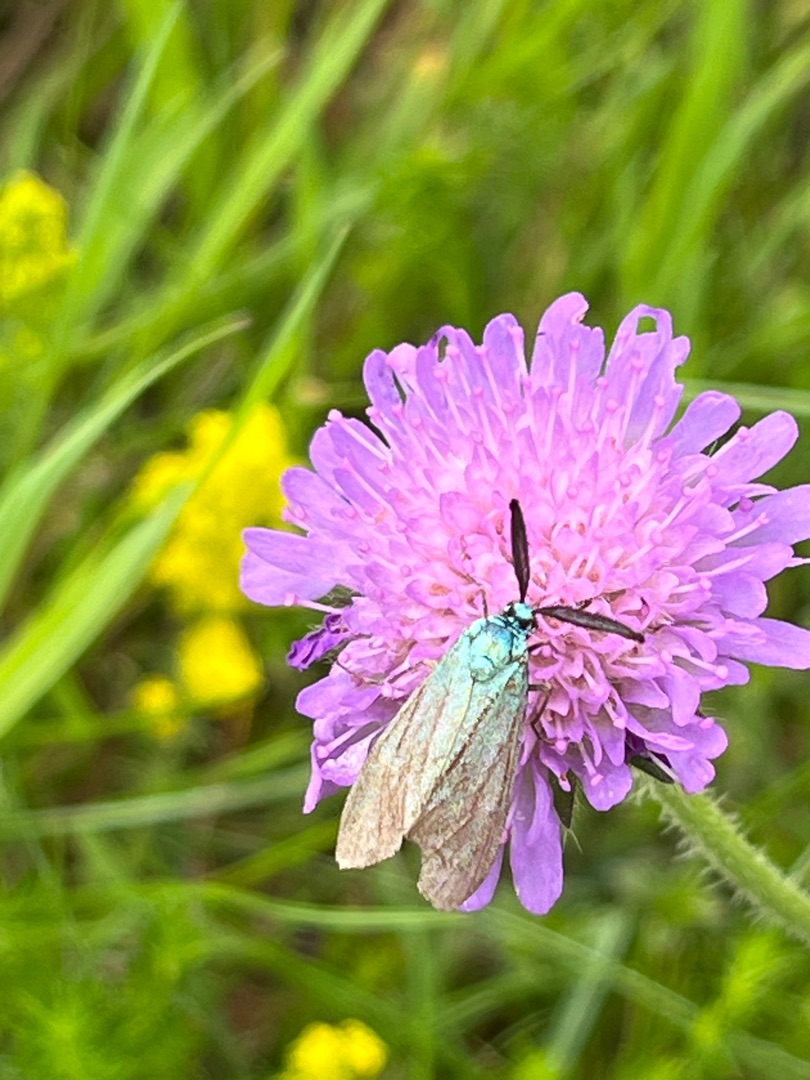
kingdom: Animalia
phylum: Arthropoda
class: Insecta
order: Lepidoptera
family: Zygaenidae
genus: Adscita
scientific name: Adscita statices
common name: Metalvinge
